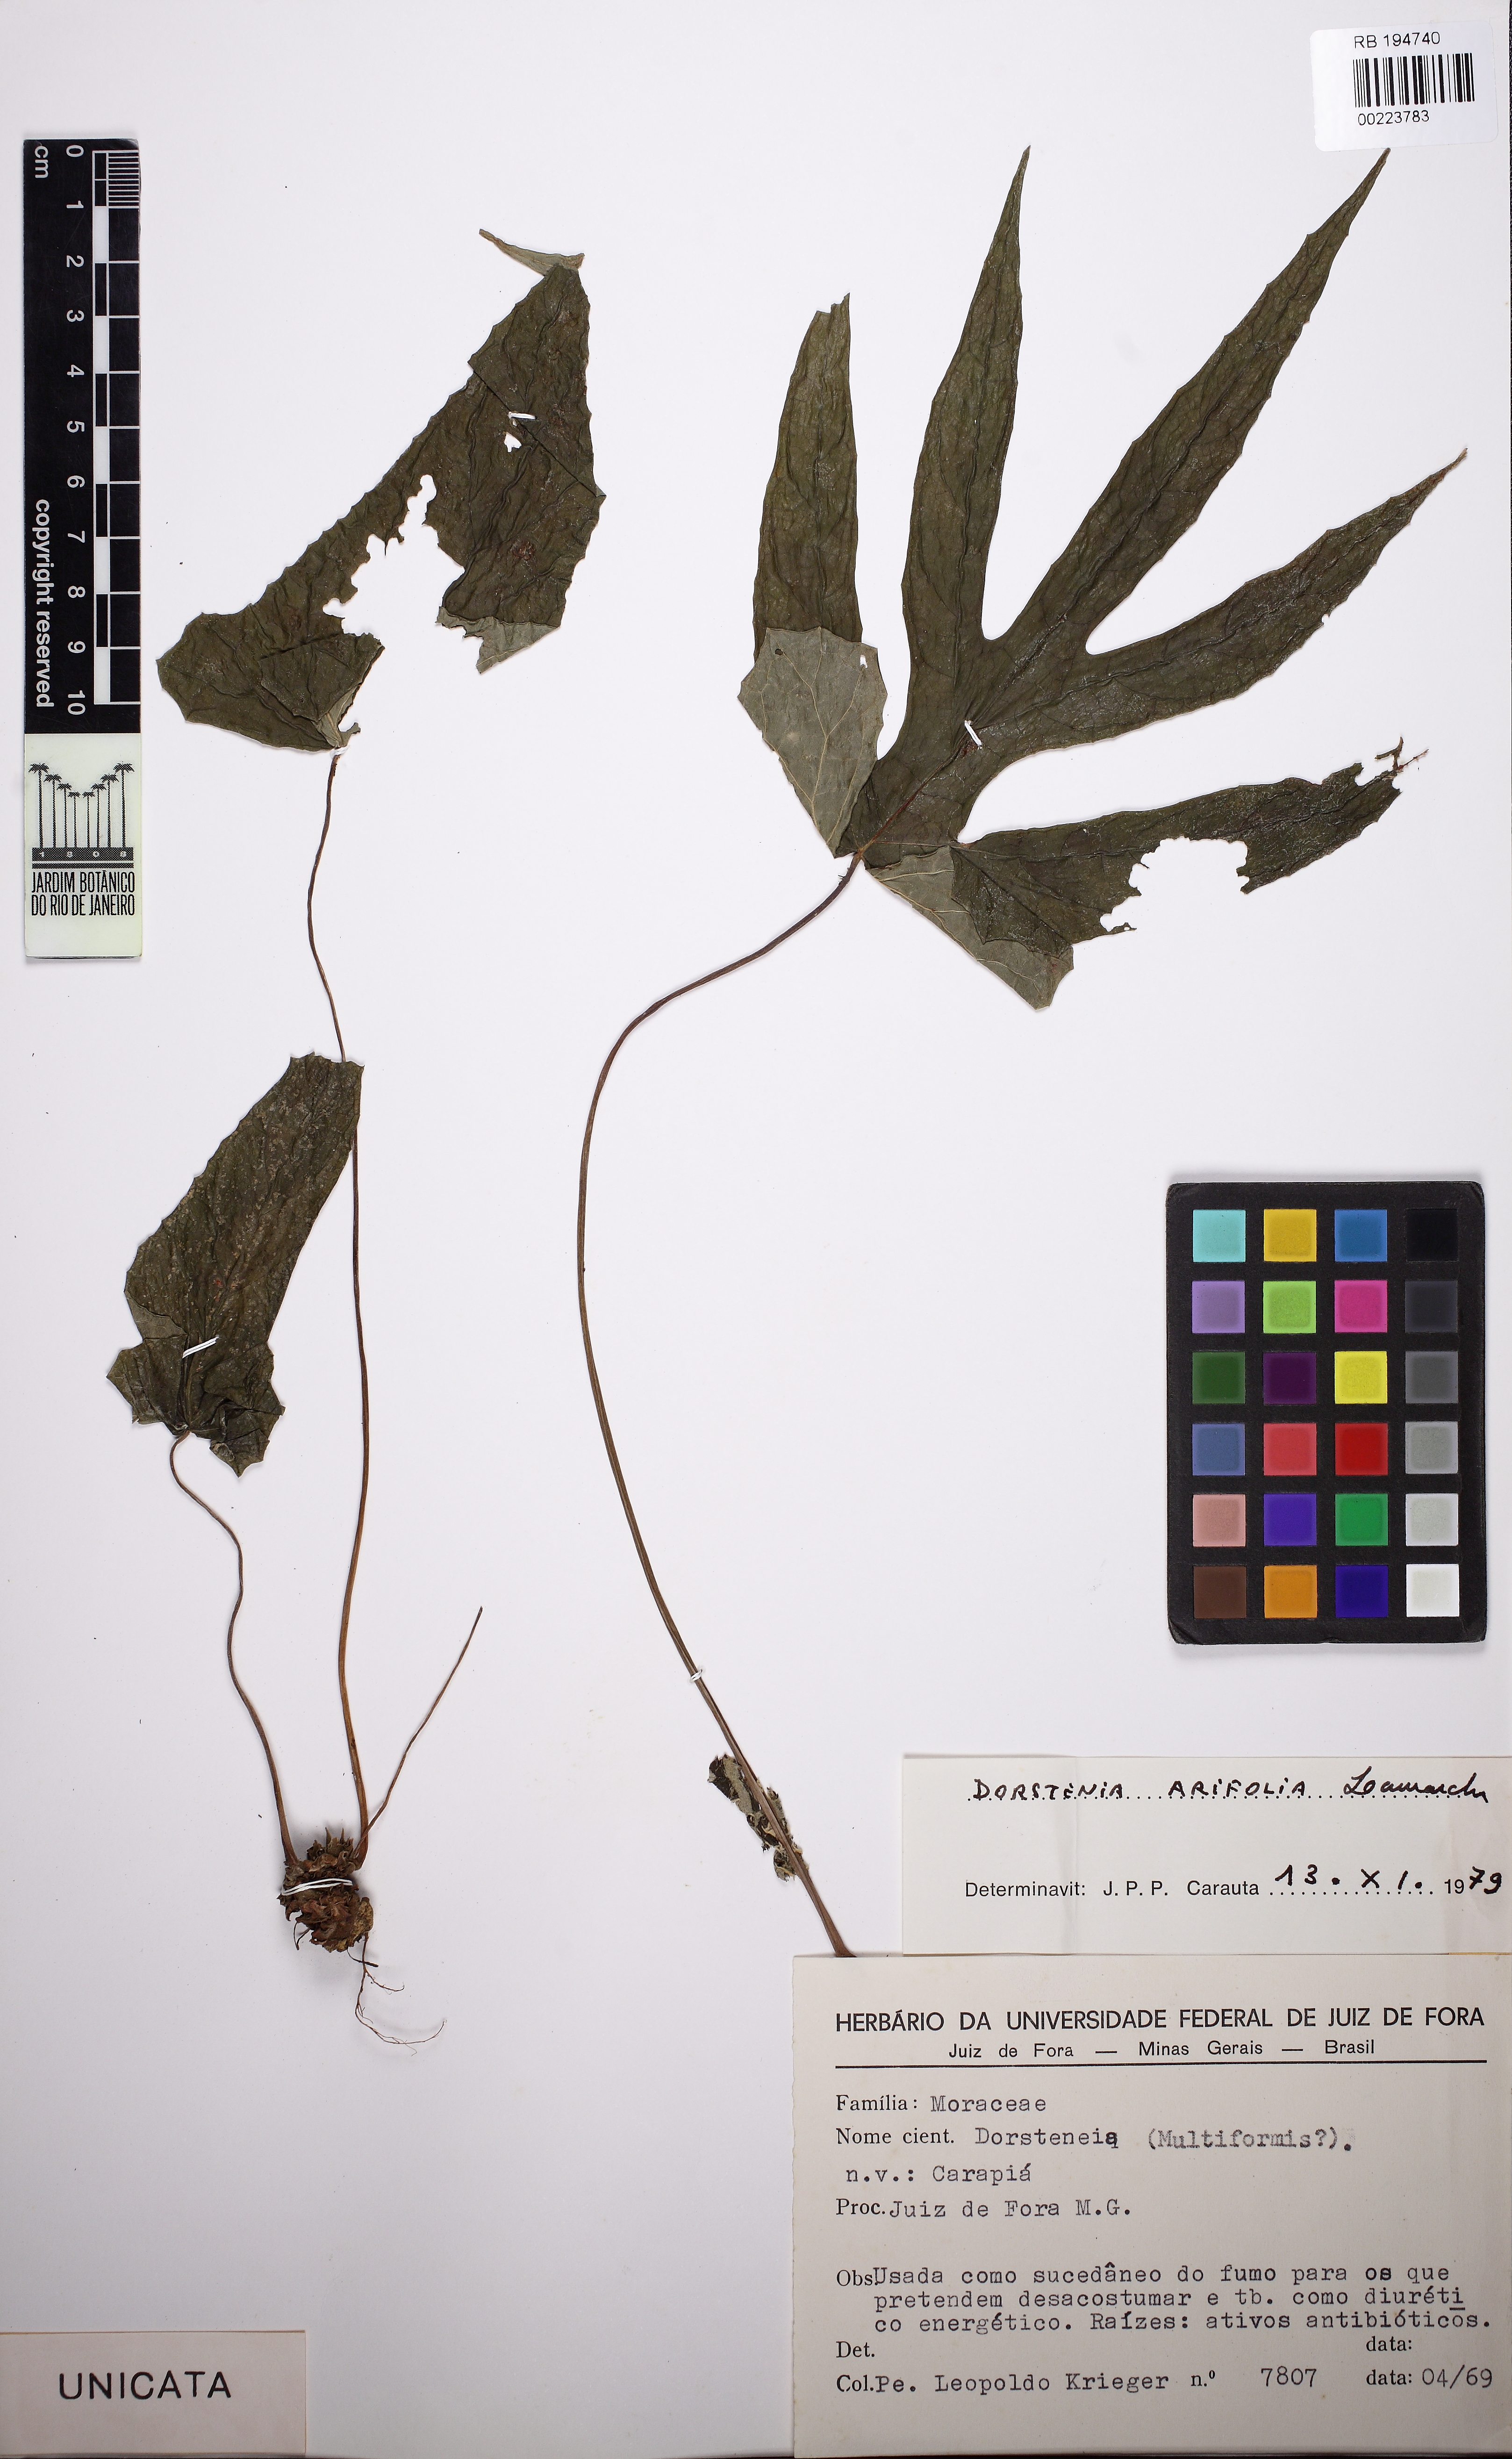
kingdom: Plantae
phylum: Tracheophyta
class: Magnoliopsida
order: Rosales
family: Moraceae
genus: Dorstenia
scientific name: Dorstenia arifolia
